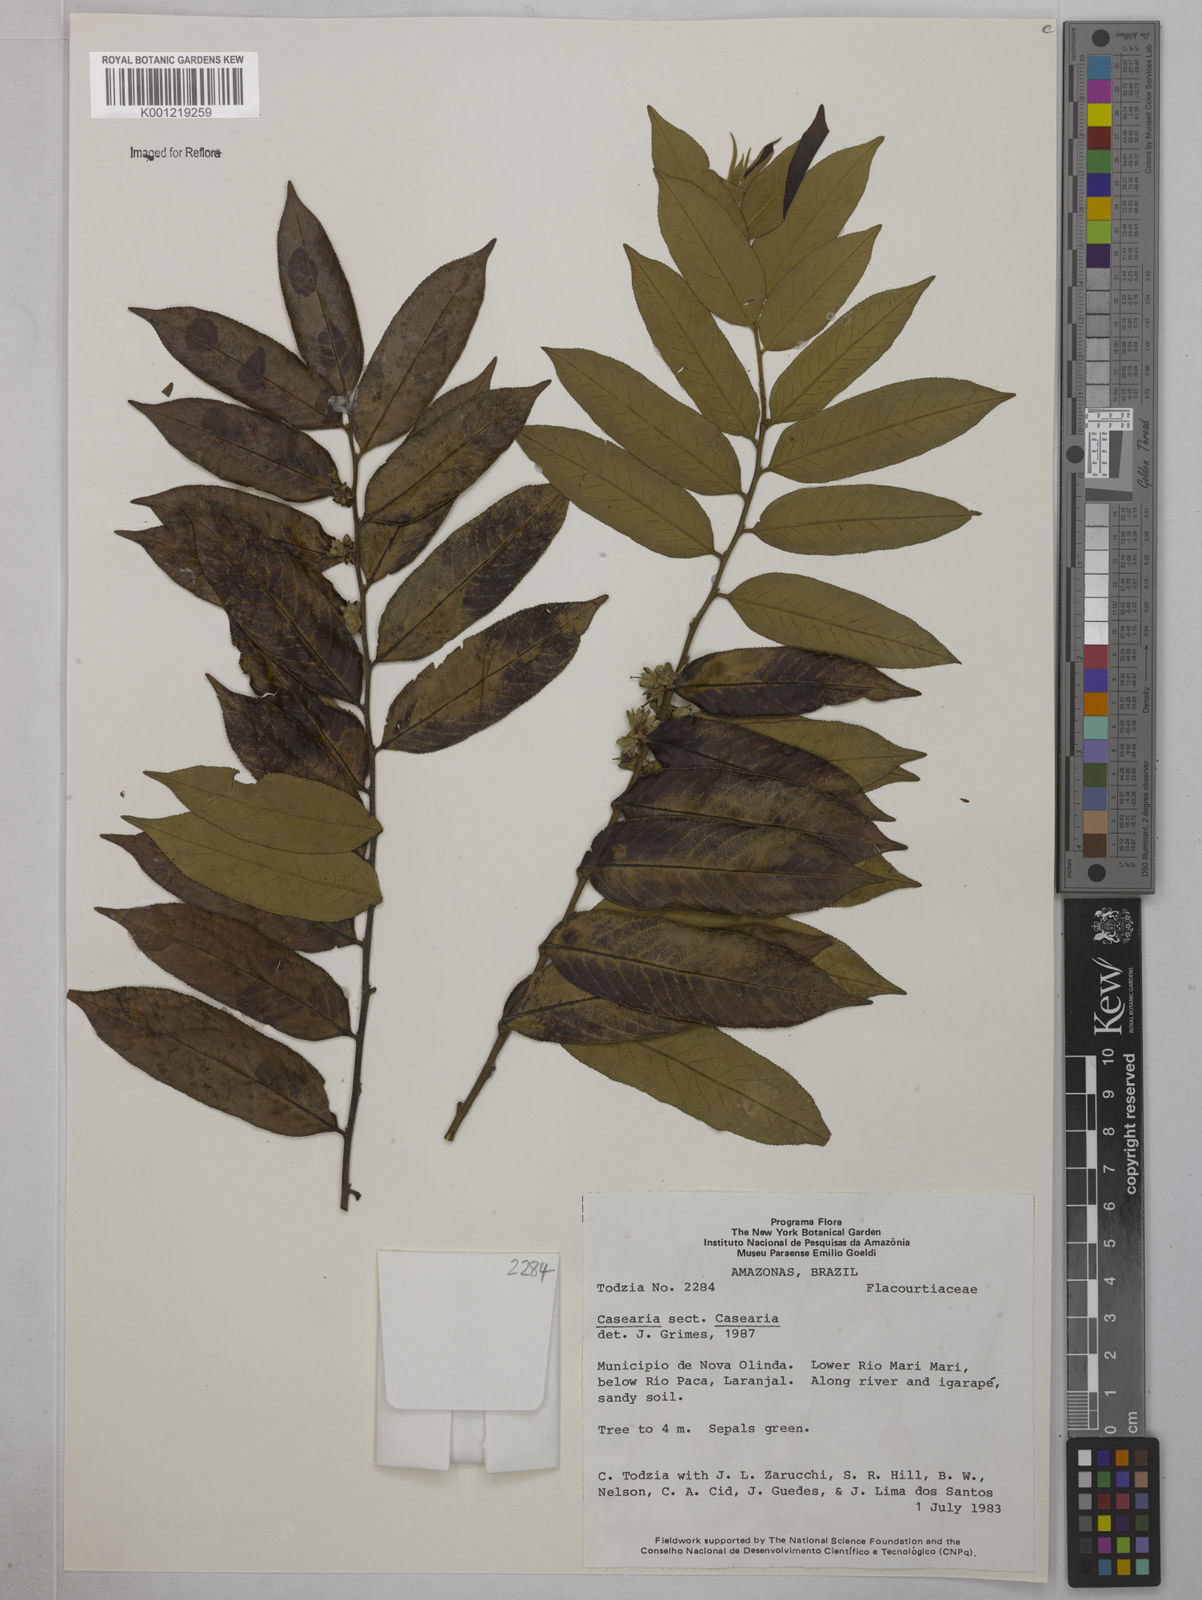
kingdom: Plantae
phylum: Tracheophyta
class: Magnoliopsida
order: Malpighiales
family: Salicaceae
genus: Casearia
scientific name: Casearia
